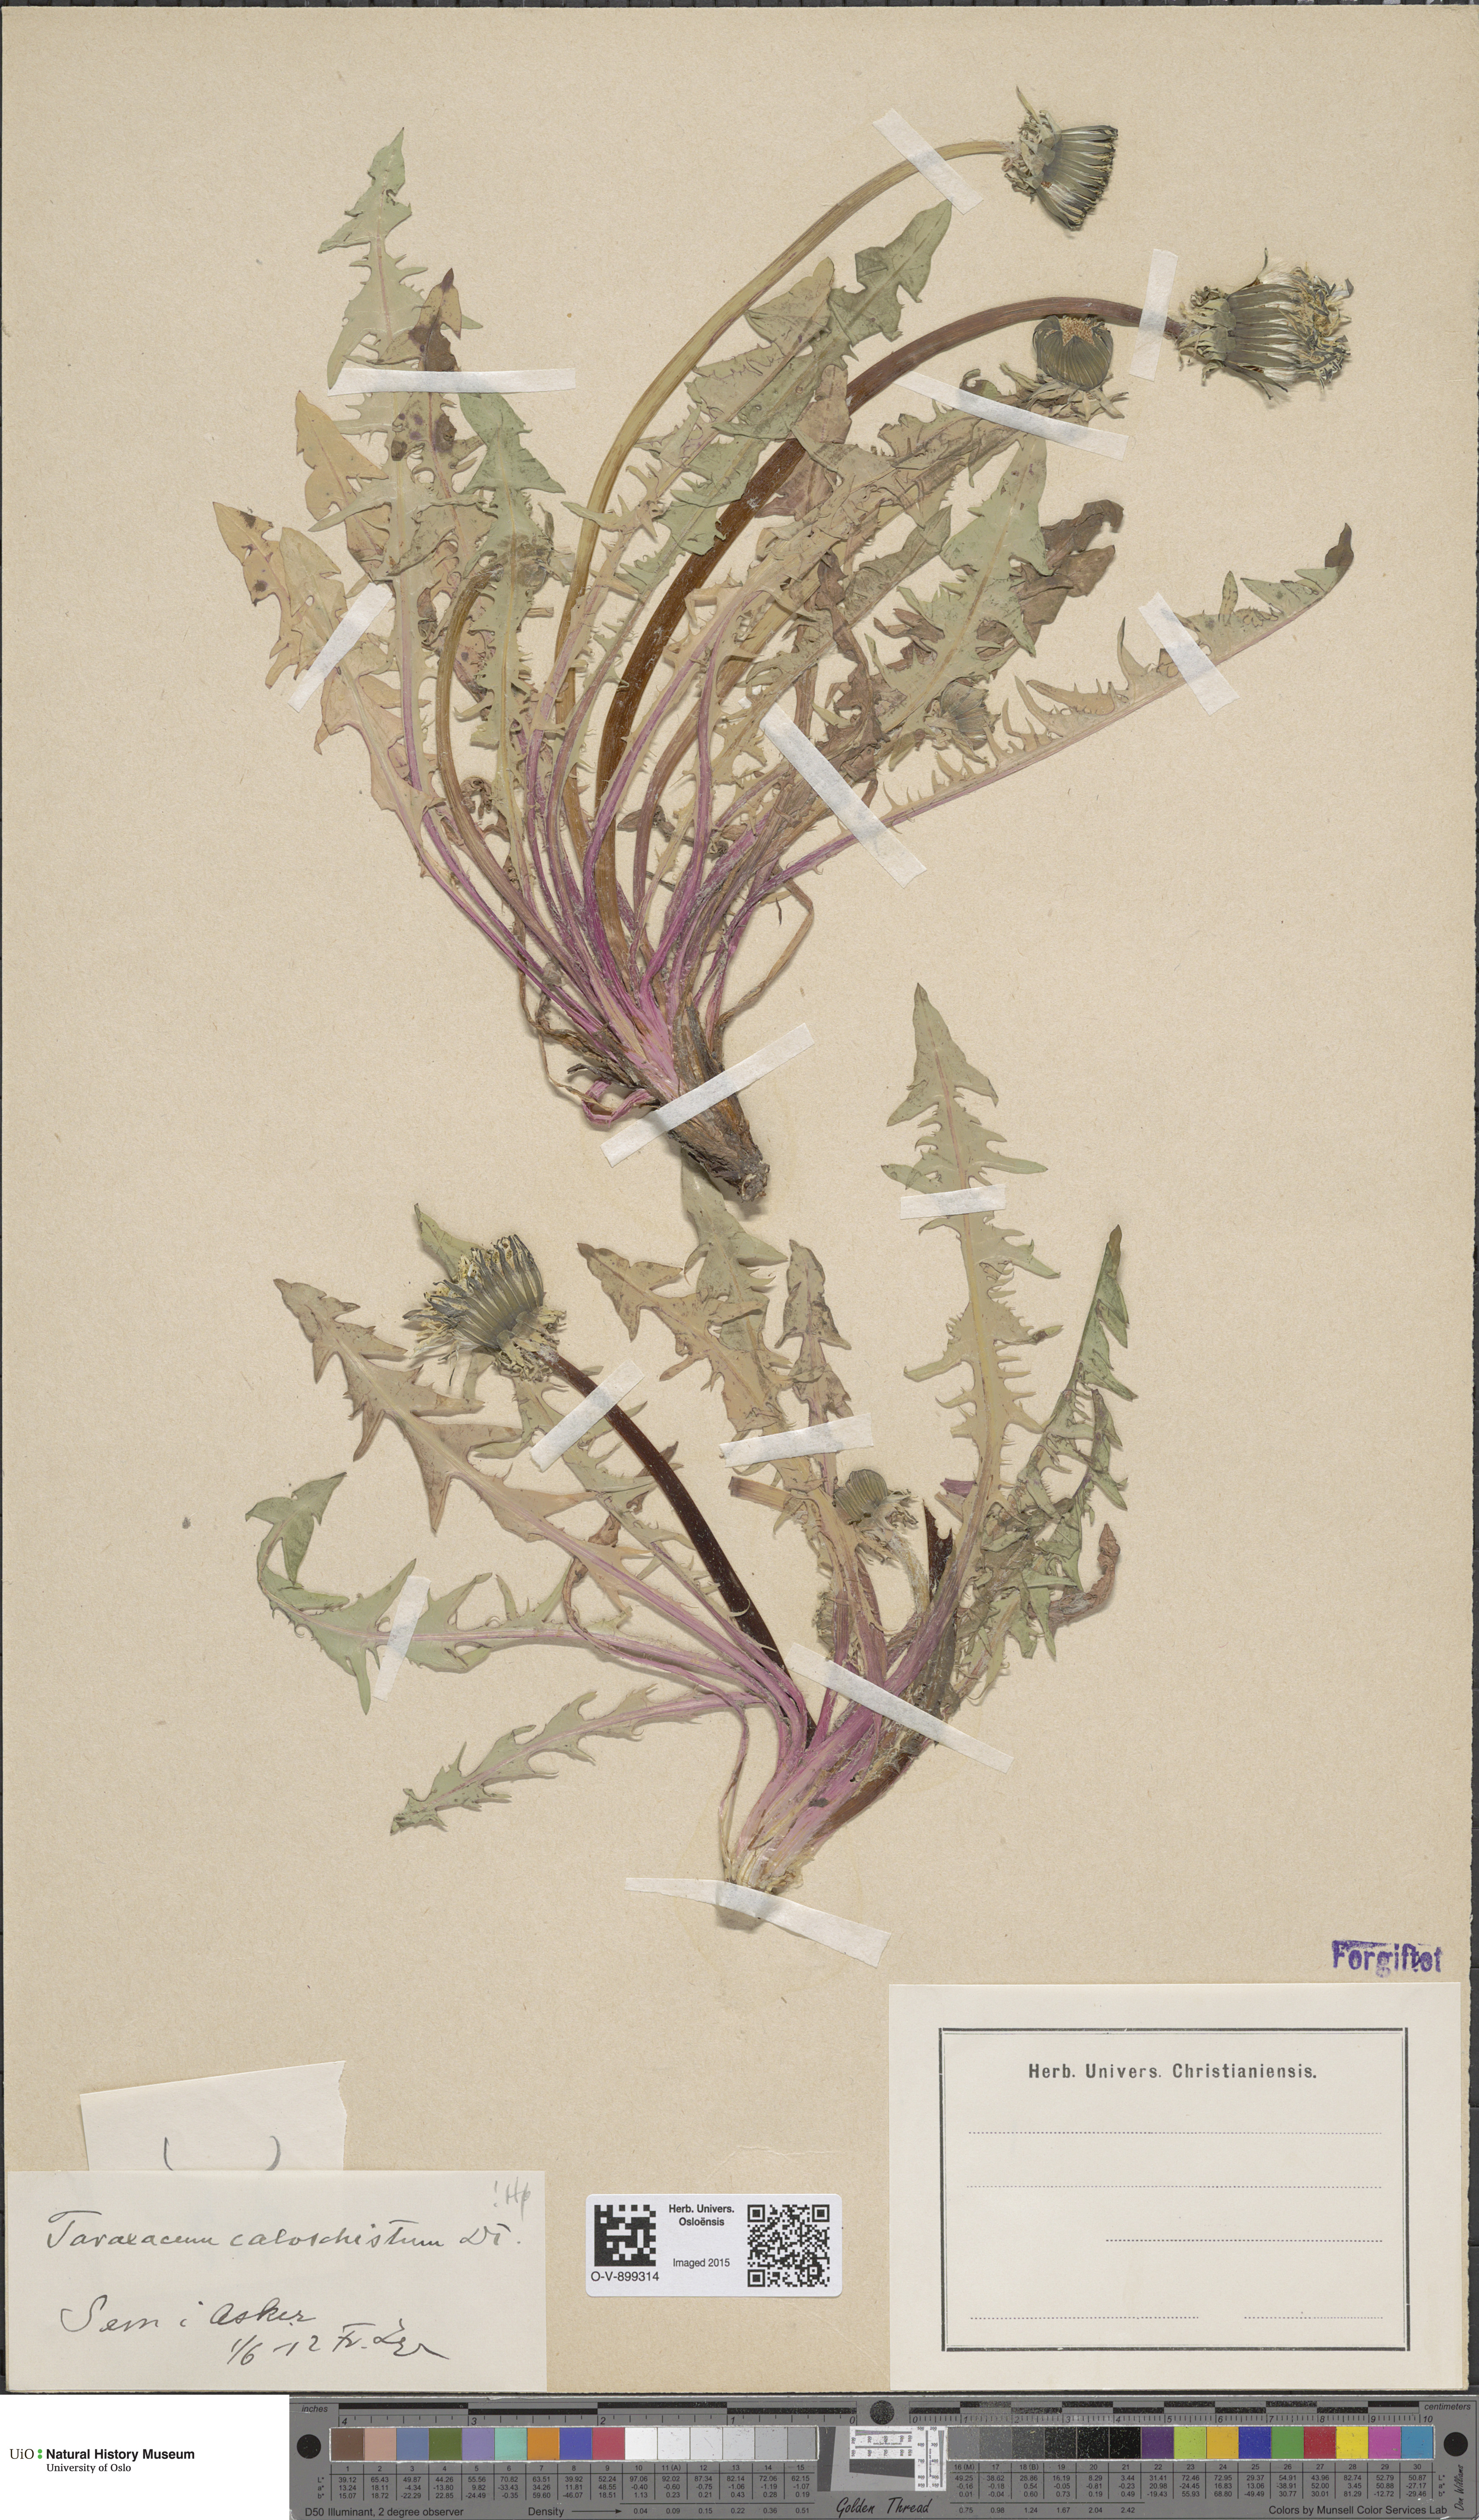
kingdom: Plantae
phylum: Tracheophyta
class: Magnoliopsida
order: Asterales
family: Asteraceae
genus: Taraxacum
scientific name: Taraxacum caloschistum
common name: Brilliant-stalked dandelion
